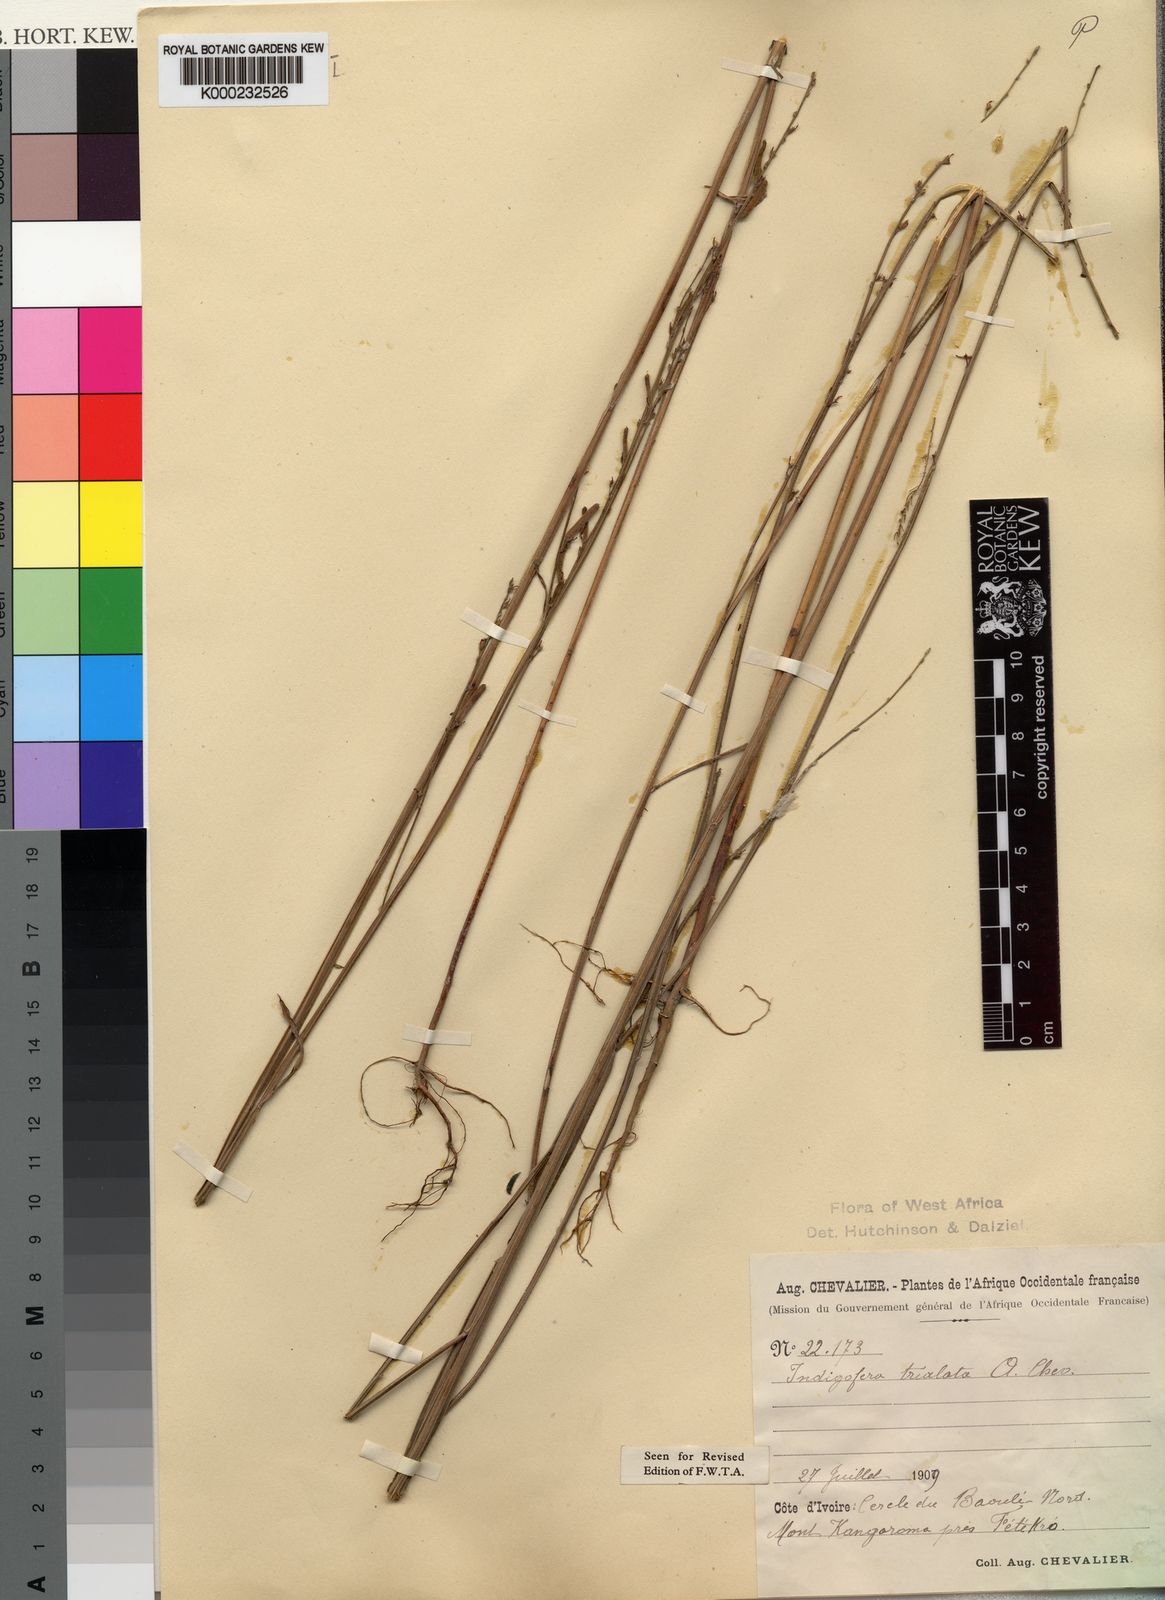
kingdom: Plantae
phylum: Tracheophyta
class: Magnoliopsida
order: Fabales
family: Fabaceae
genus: Indigofera
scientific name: Indigofera trialata
